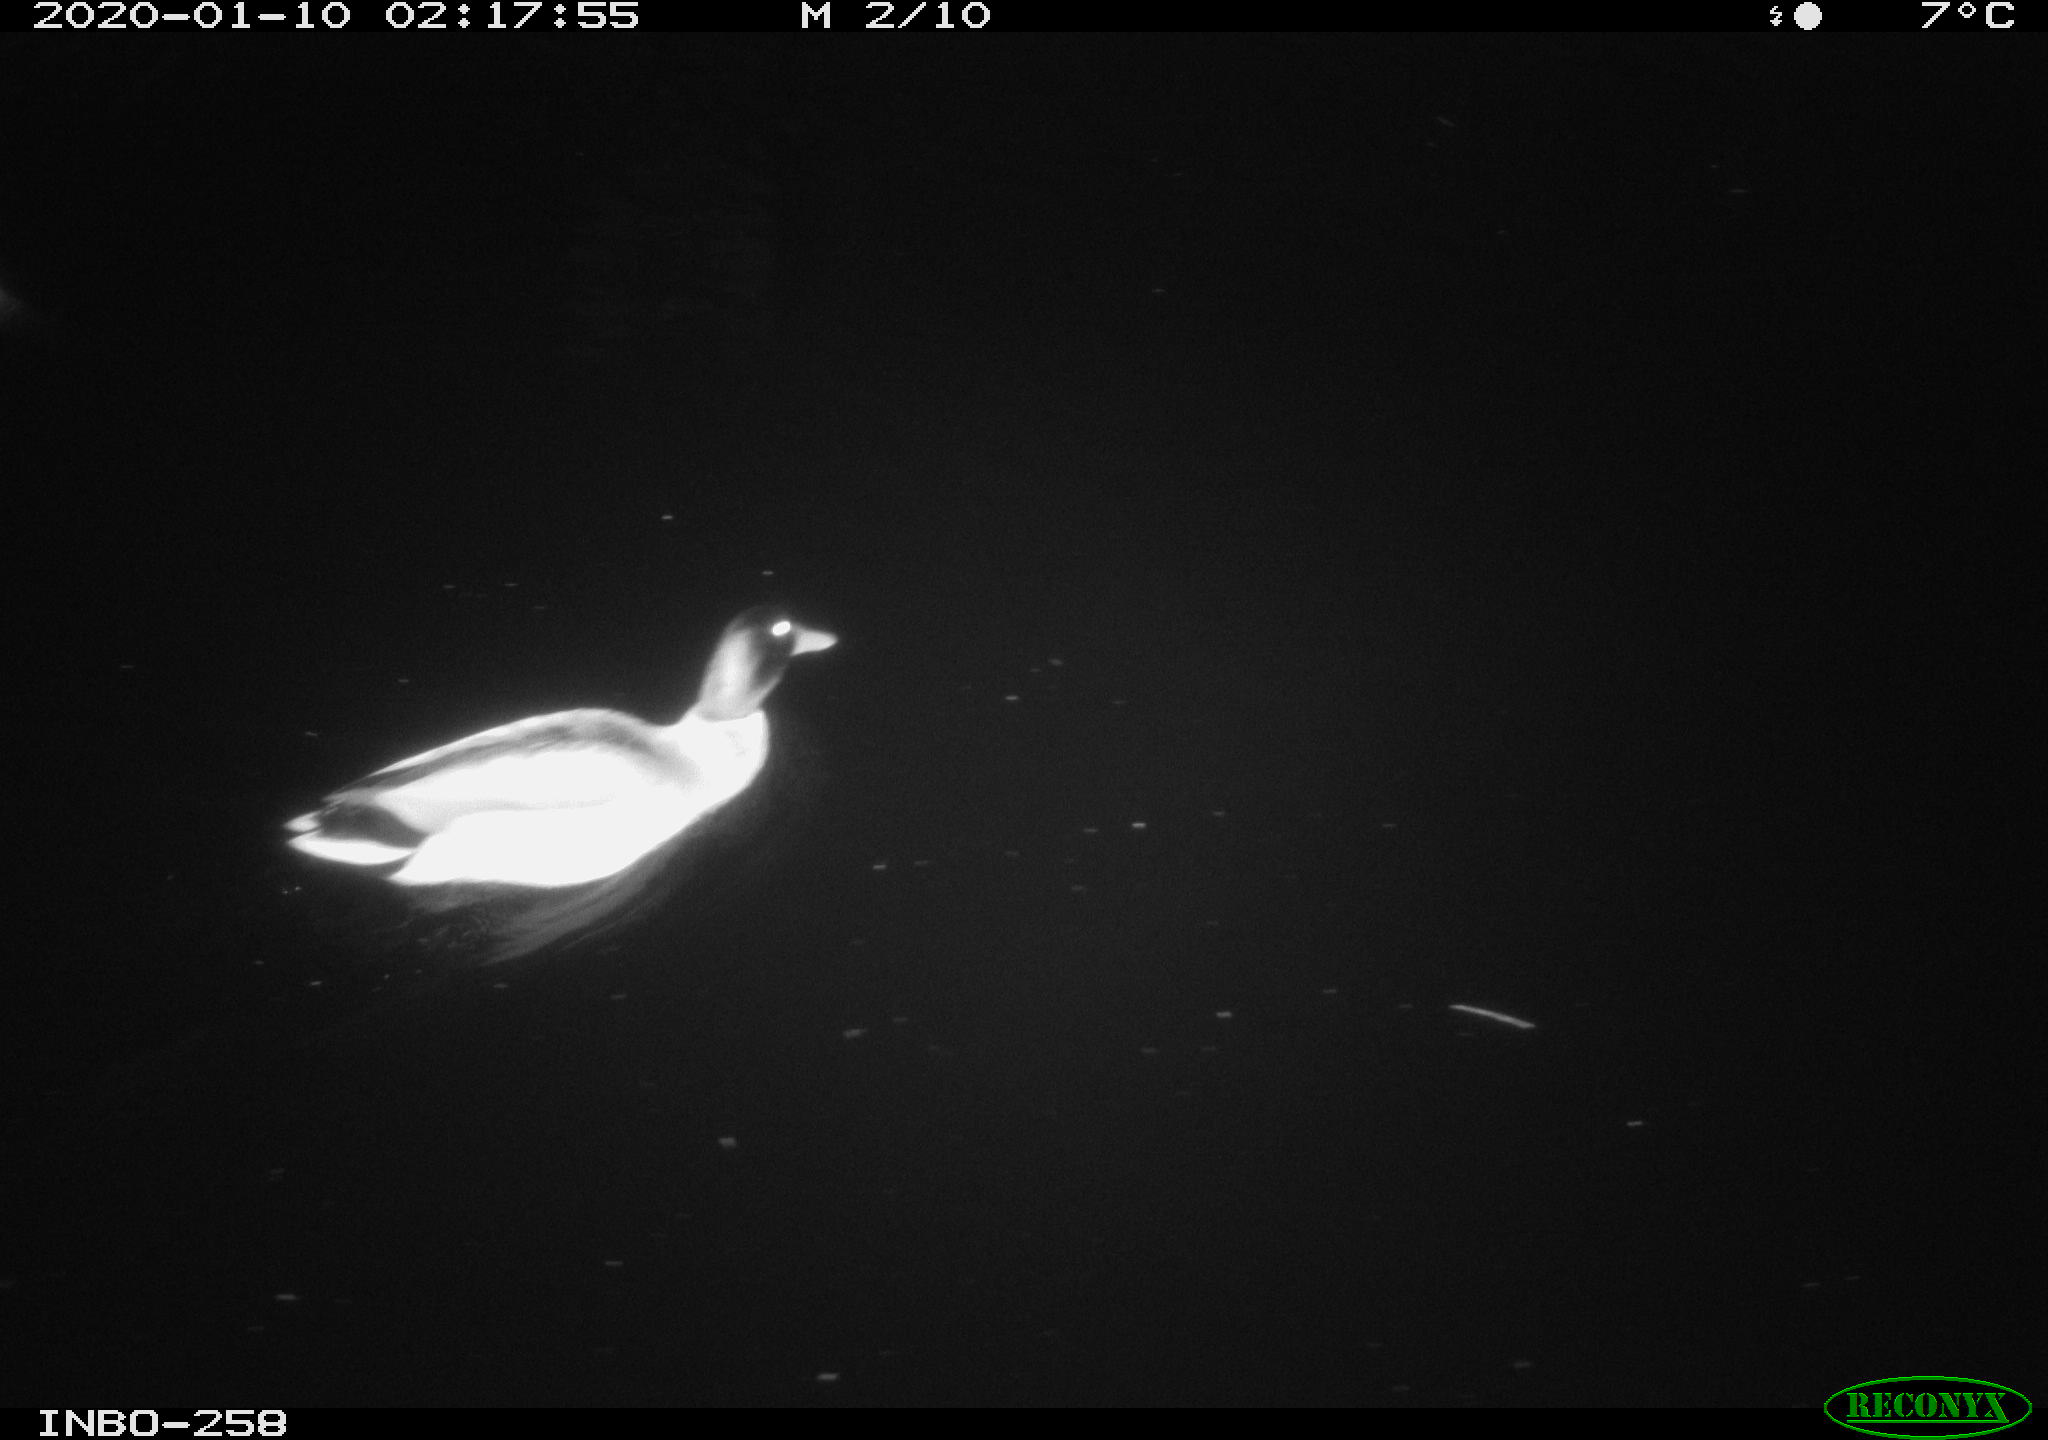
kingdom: Animalia
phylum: Chordata
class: Aves
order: Anseriformes
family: Anatidae
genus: Anas
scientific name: Anas platyrhynchos
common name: Mallard
